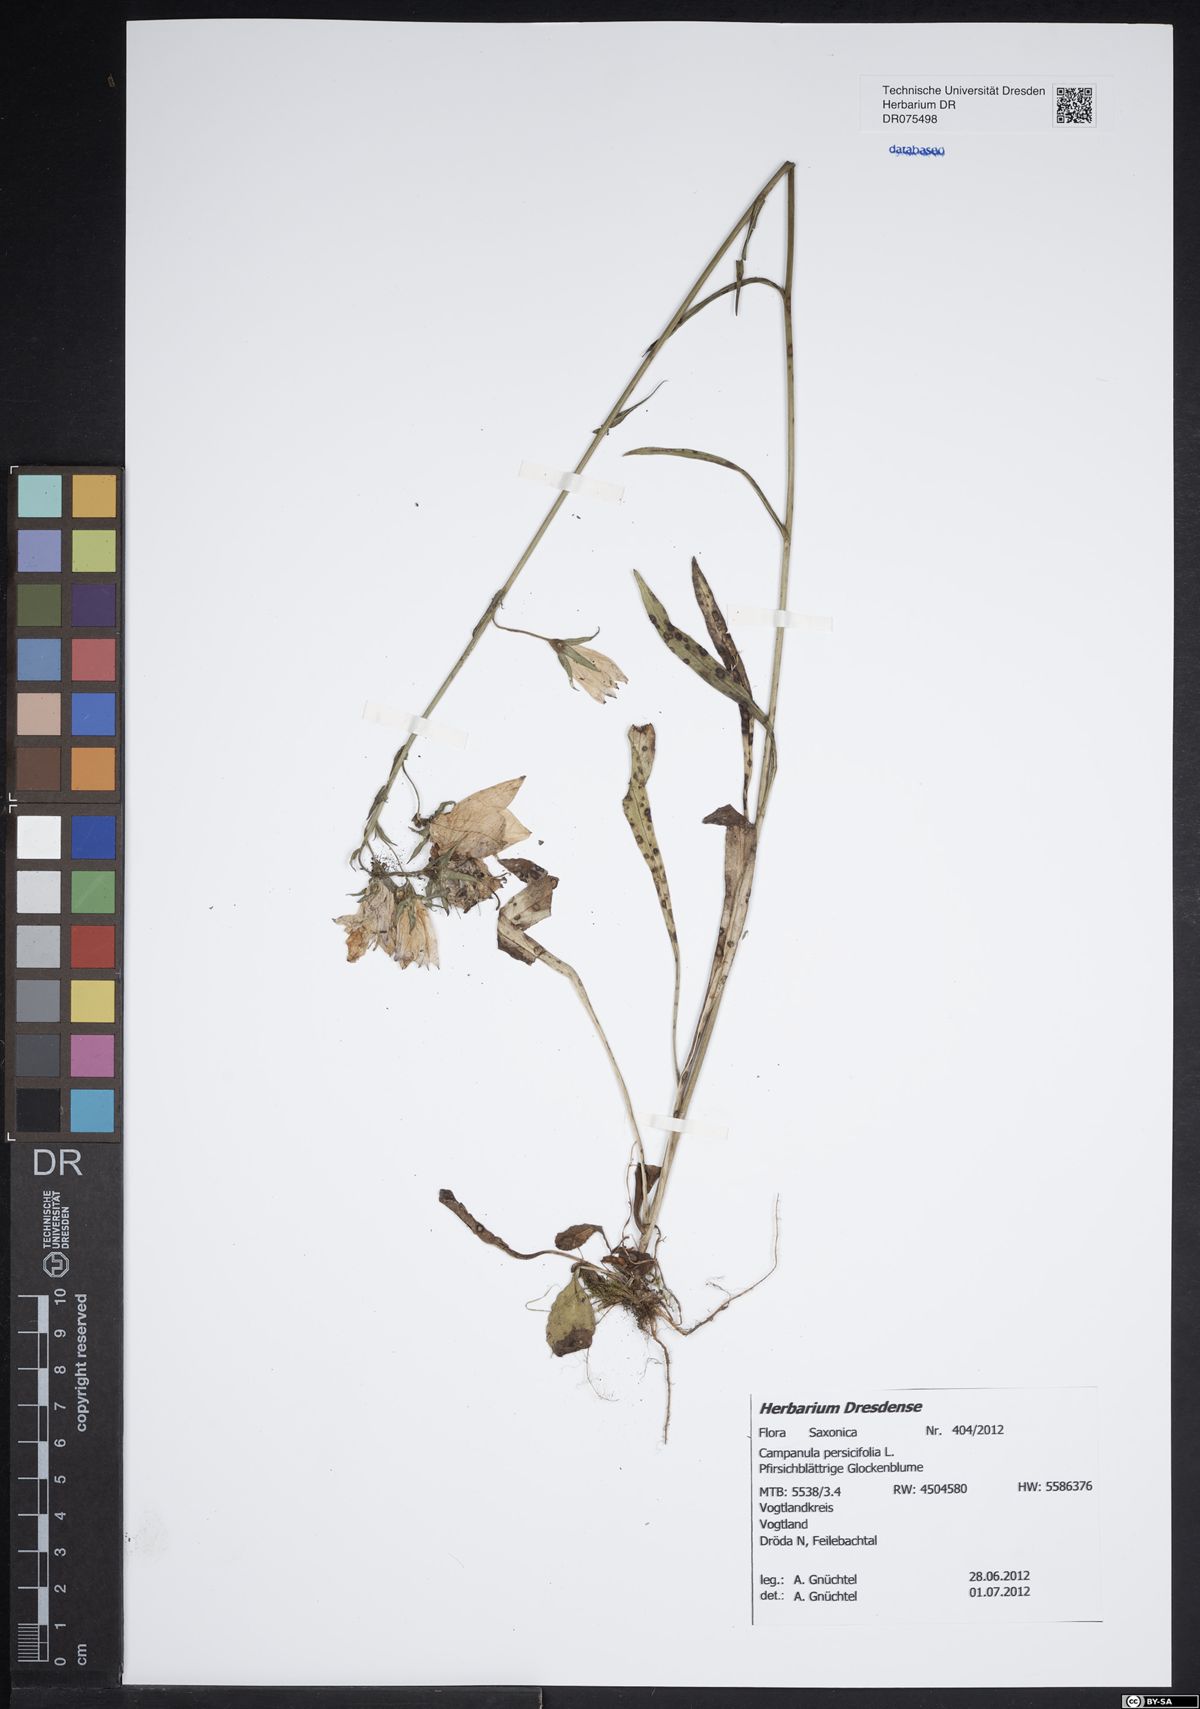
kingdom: Plantae
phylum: Tracheophyta
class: Magnoliopsida
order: Asterales
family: Campanulaceae
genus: Campanula
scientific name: Campanula persicifolia
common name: Peach-leaved bellflower
